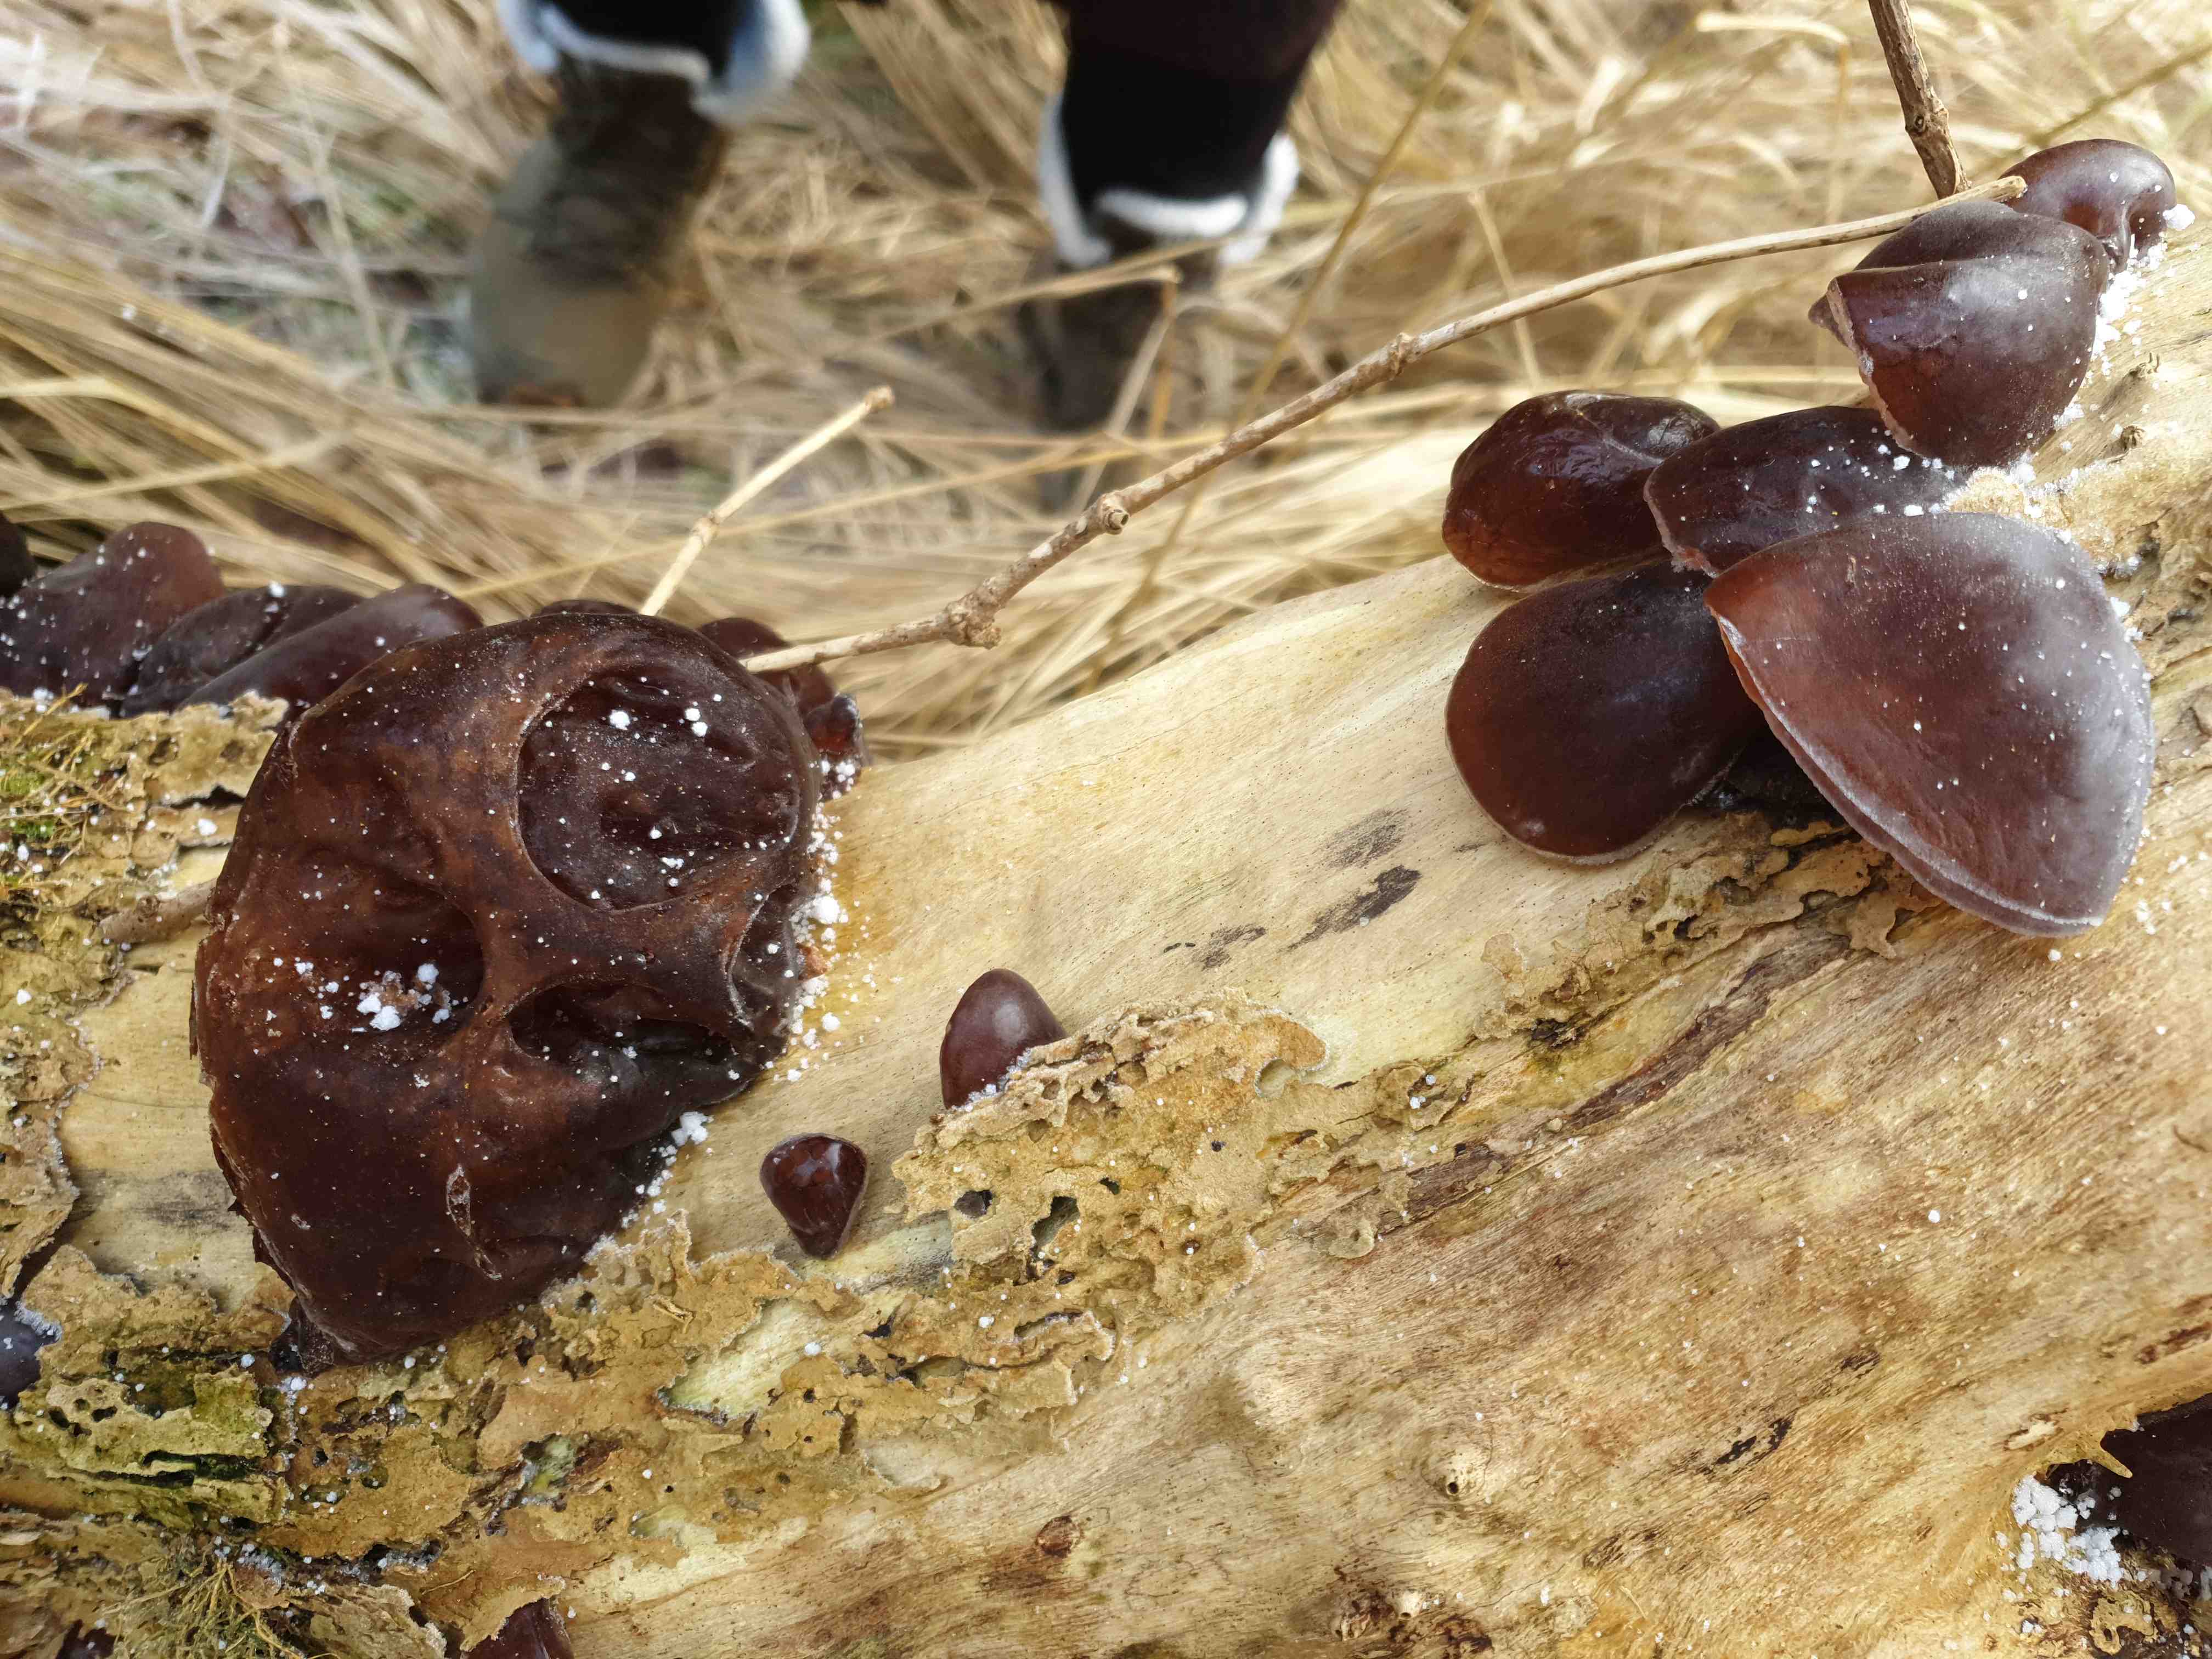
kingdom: Fungi
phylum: Basidiomycota
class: Agaricomycetes
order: Auriculariales
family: Auriculariaceae
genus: Auricularia
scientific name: Auricularia auricula-judae
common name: almindelig judasøre
